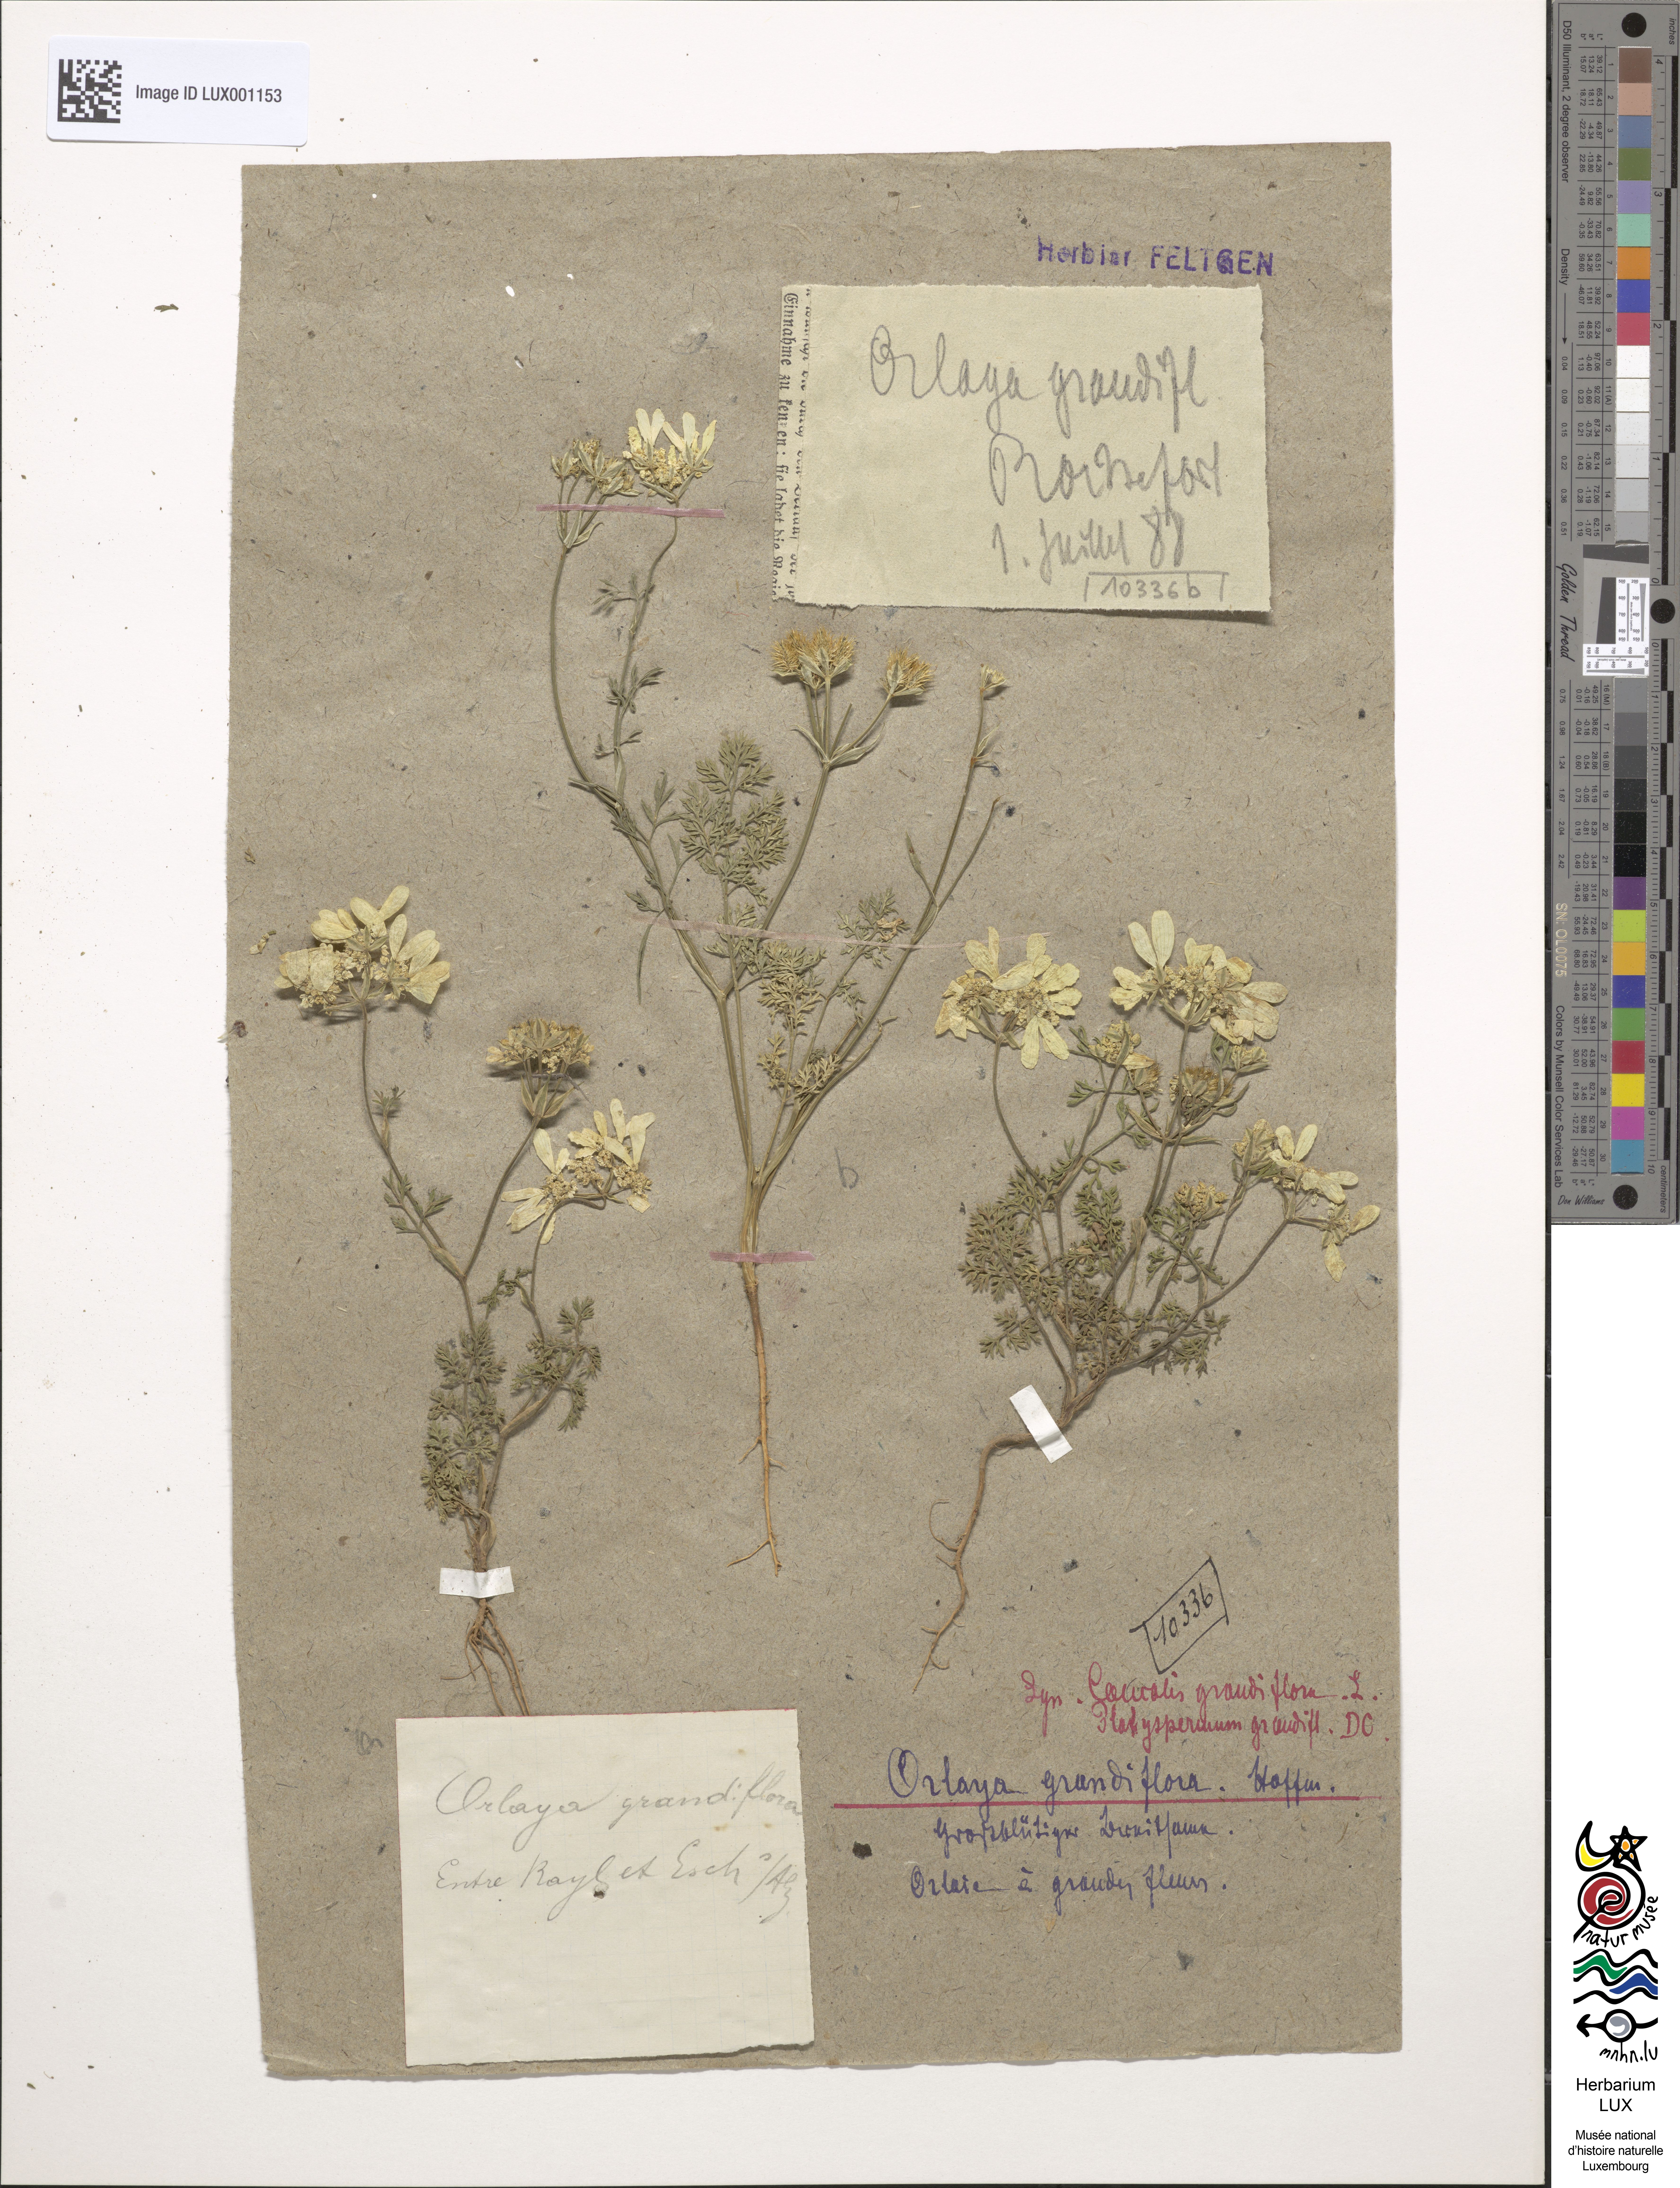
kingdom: Plantae
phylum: Tracheophyta
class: Magnoliopsida
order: Apiales
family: Apiaceae
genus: Orlaya
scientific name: Orlaya grandiflora
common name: White lace flower
